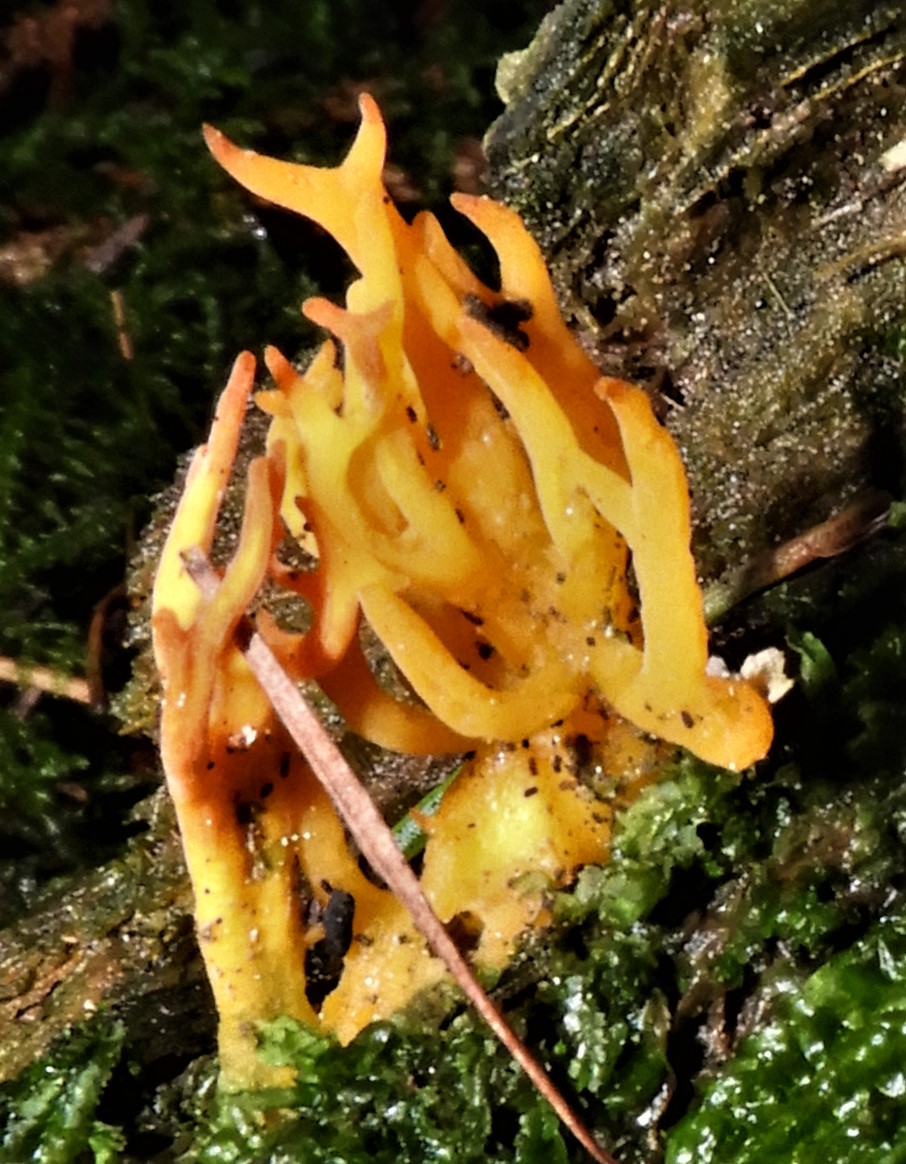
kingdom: Fungi
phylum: Basidiomycota
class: Dacrymycetes
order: Dacrymycetales
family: Dacrymycetaceae
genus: Calocera
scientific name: Calocera viscosa
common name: almindelig guldgaffel
